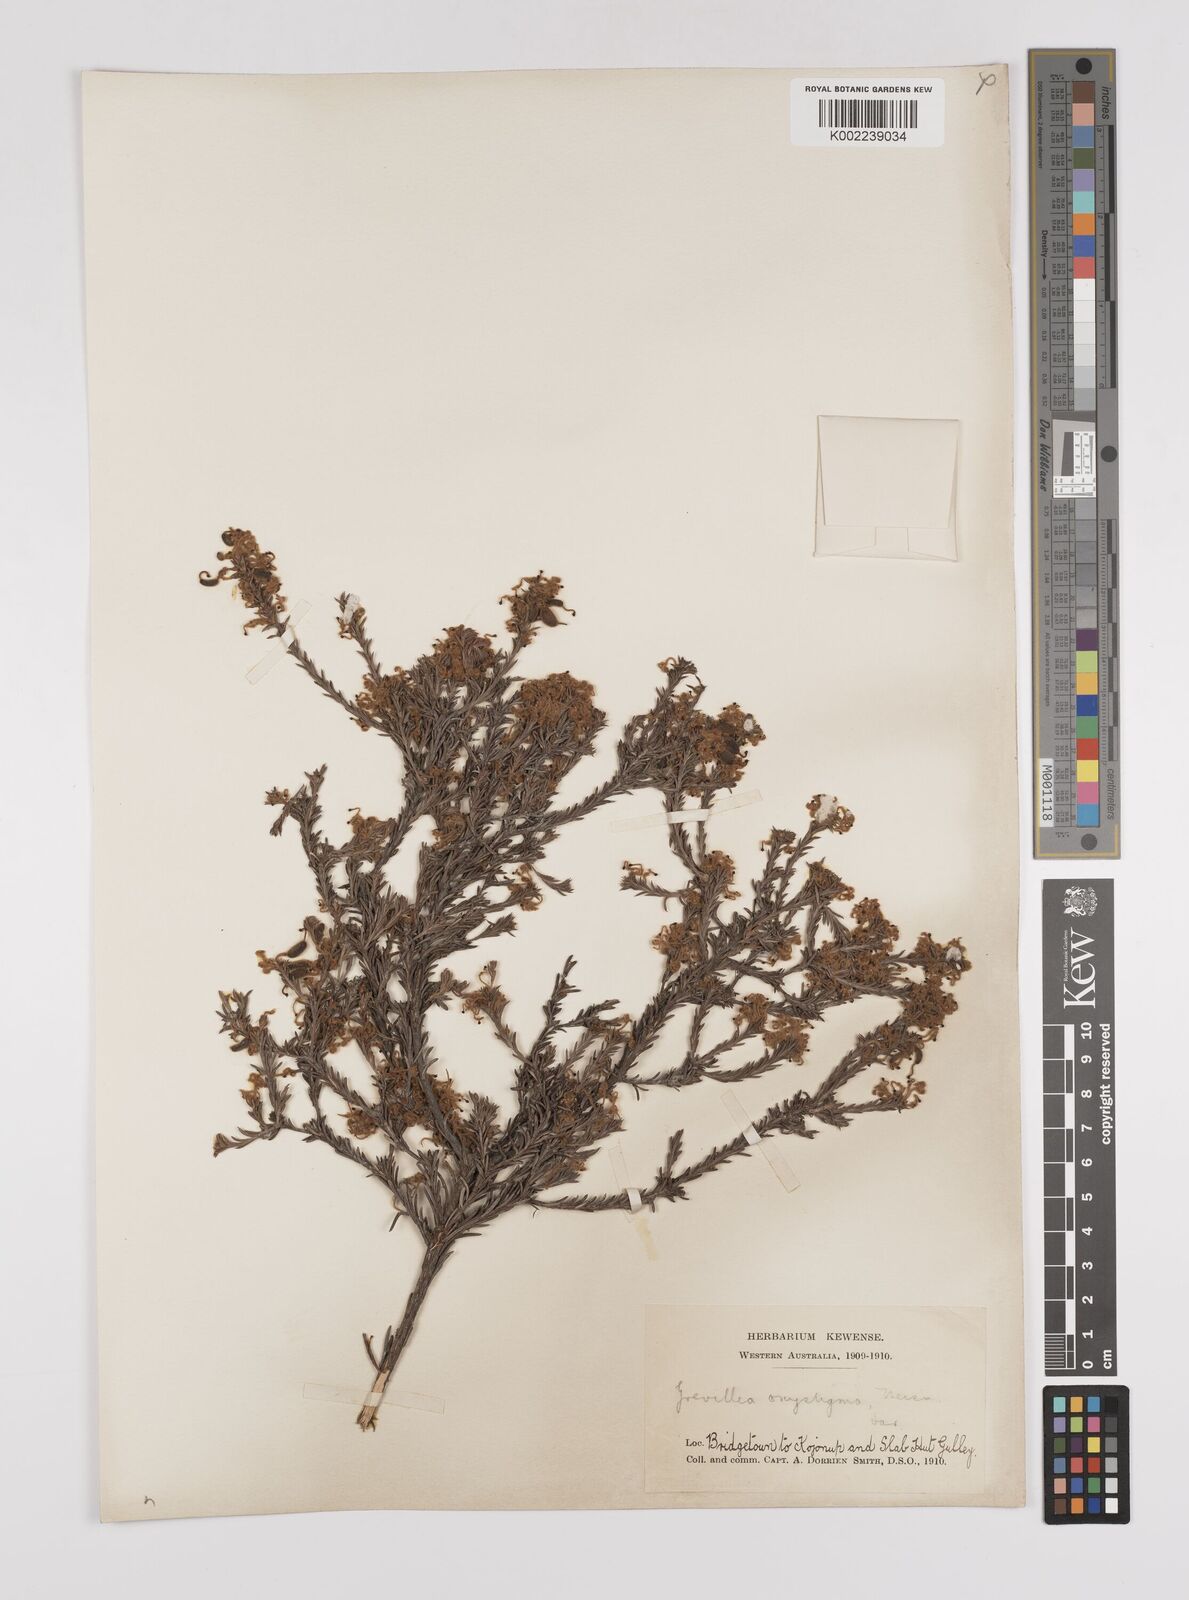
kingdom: Plantae
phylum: Tracheophyta
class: Magnoliopsida
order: Proteales
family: Proteaceae
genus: Grevillea
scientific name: Grevillea pilulifera
